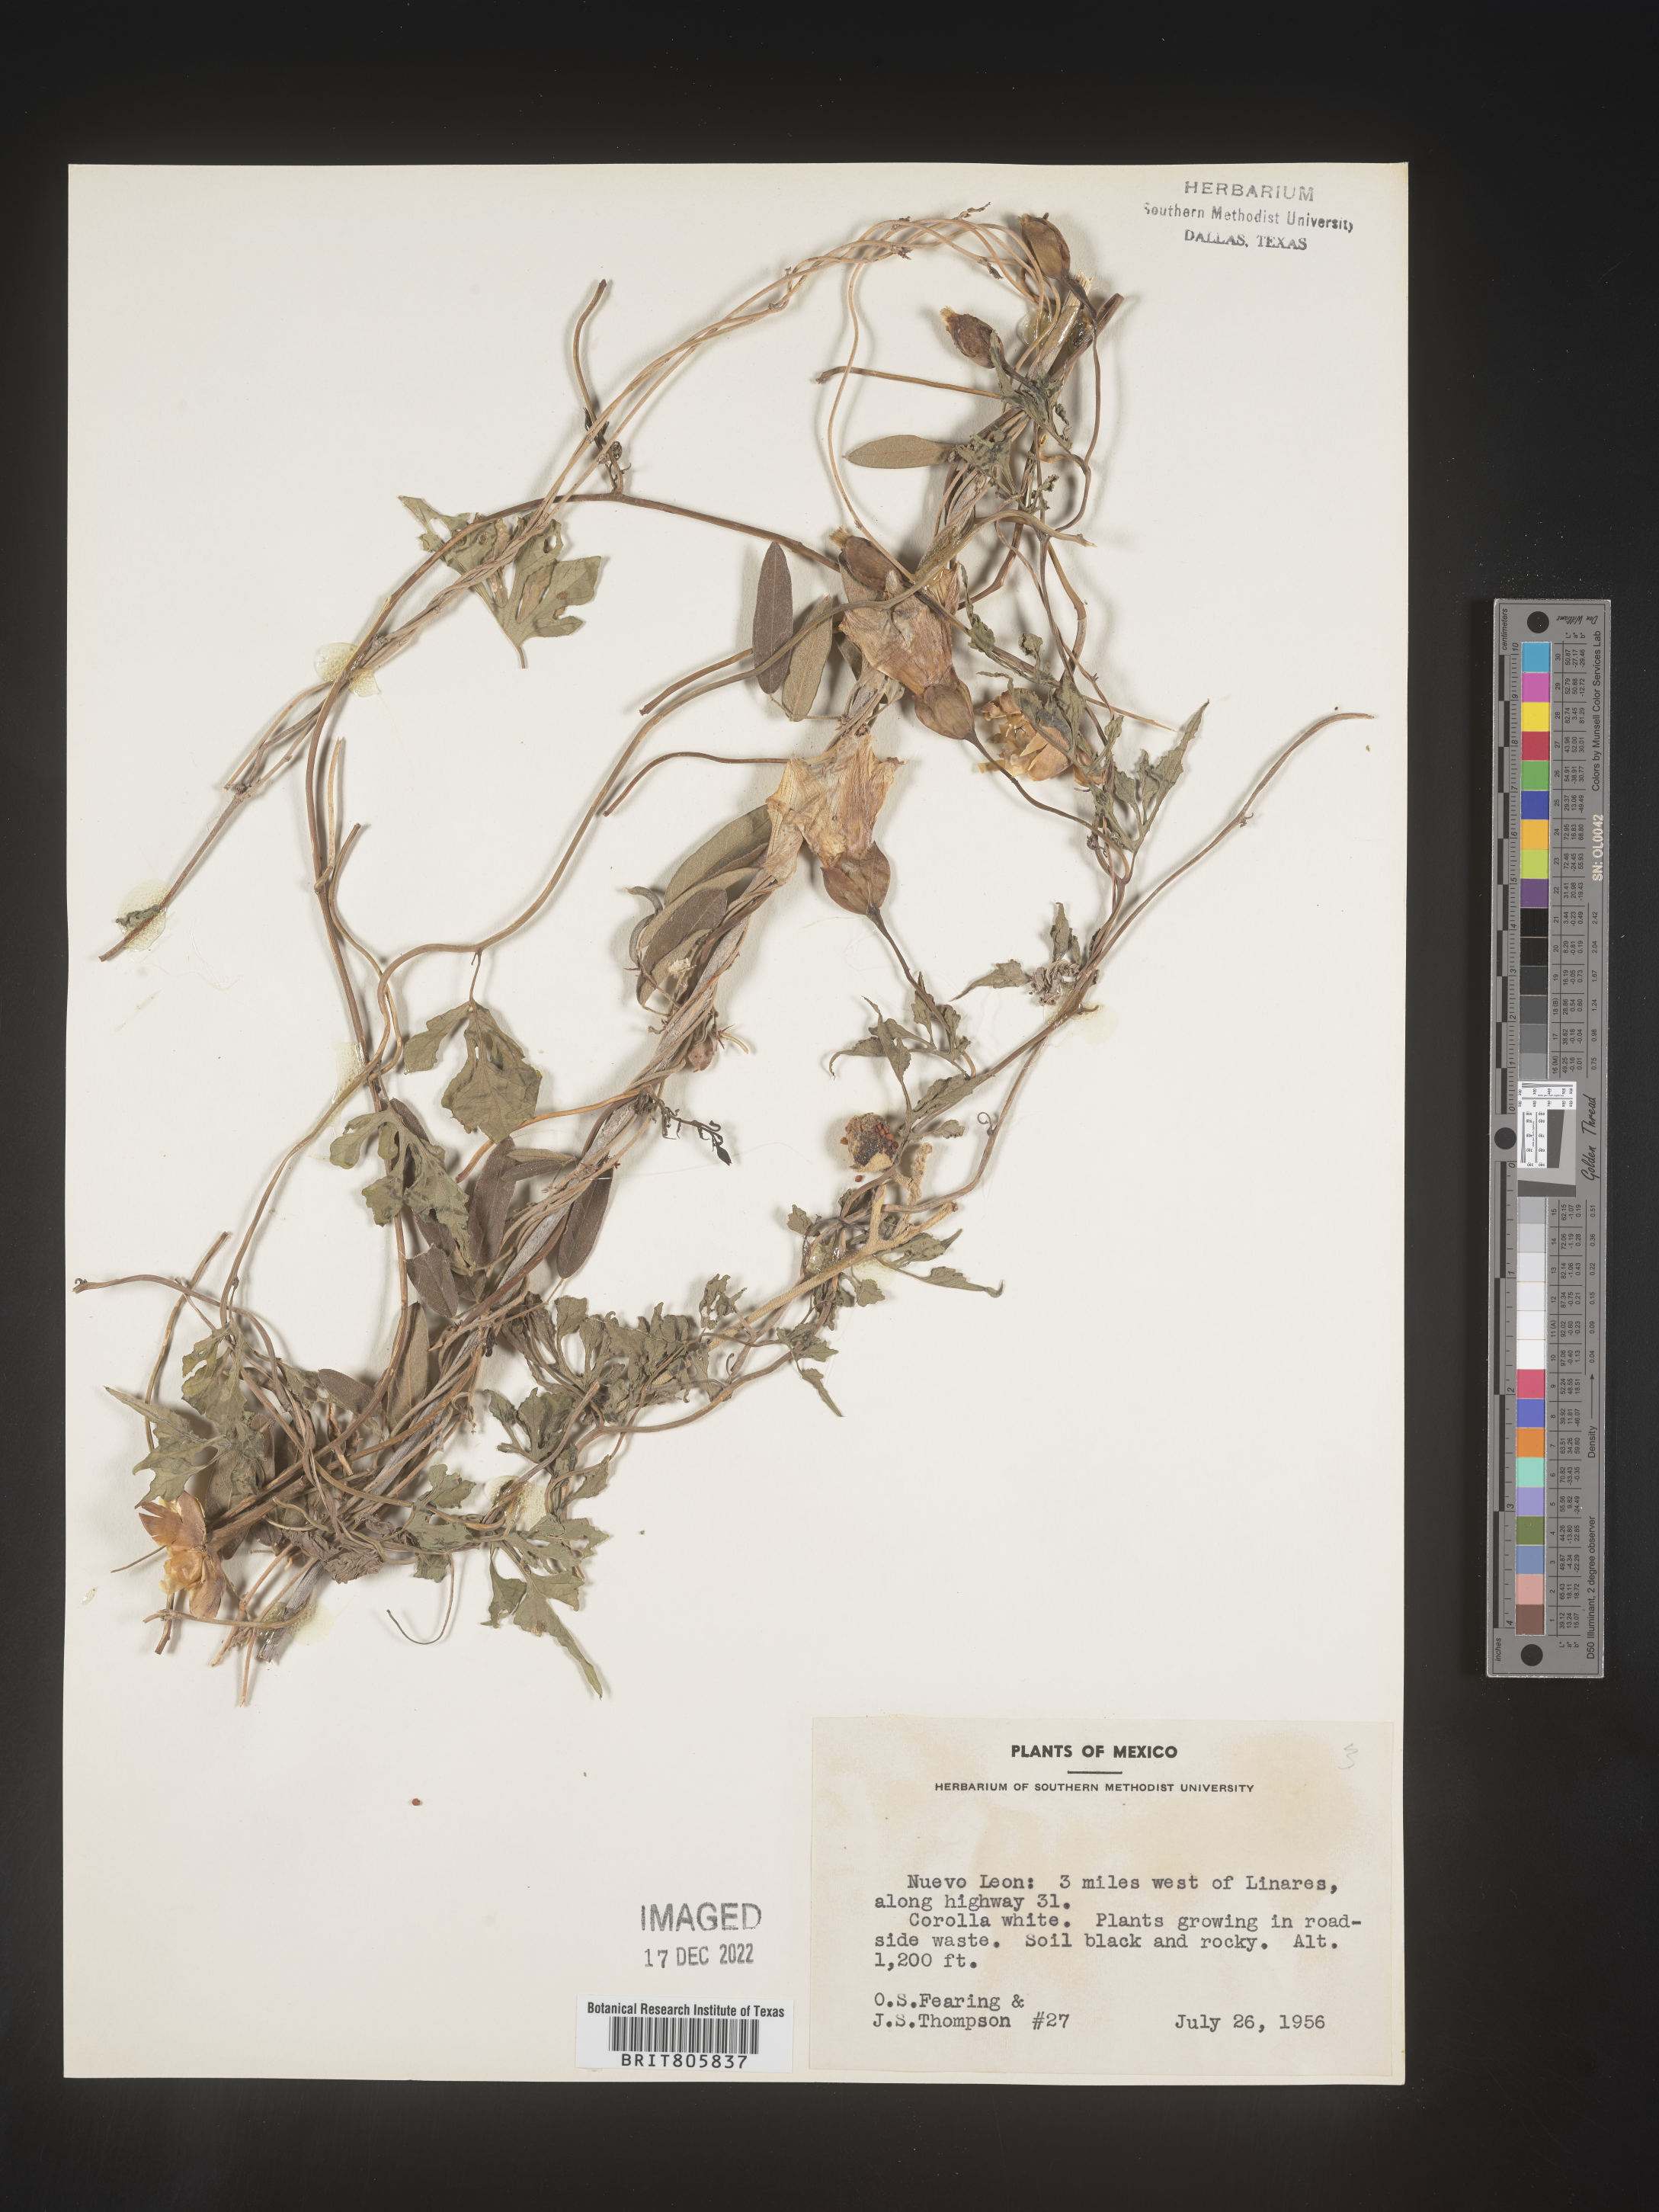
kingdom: Plantae
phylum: Tracheophyta
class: Magnoliopsida
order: Solanales
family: Convolvulaceae
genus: Merremia
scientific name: Merremia
